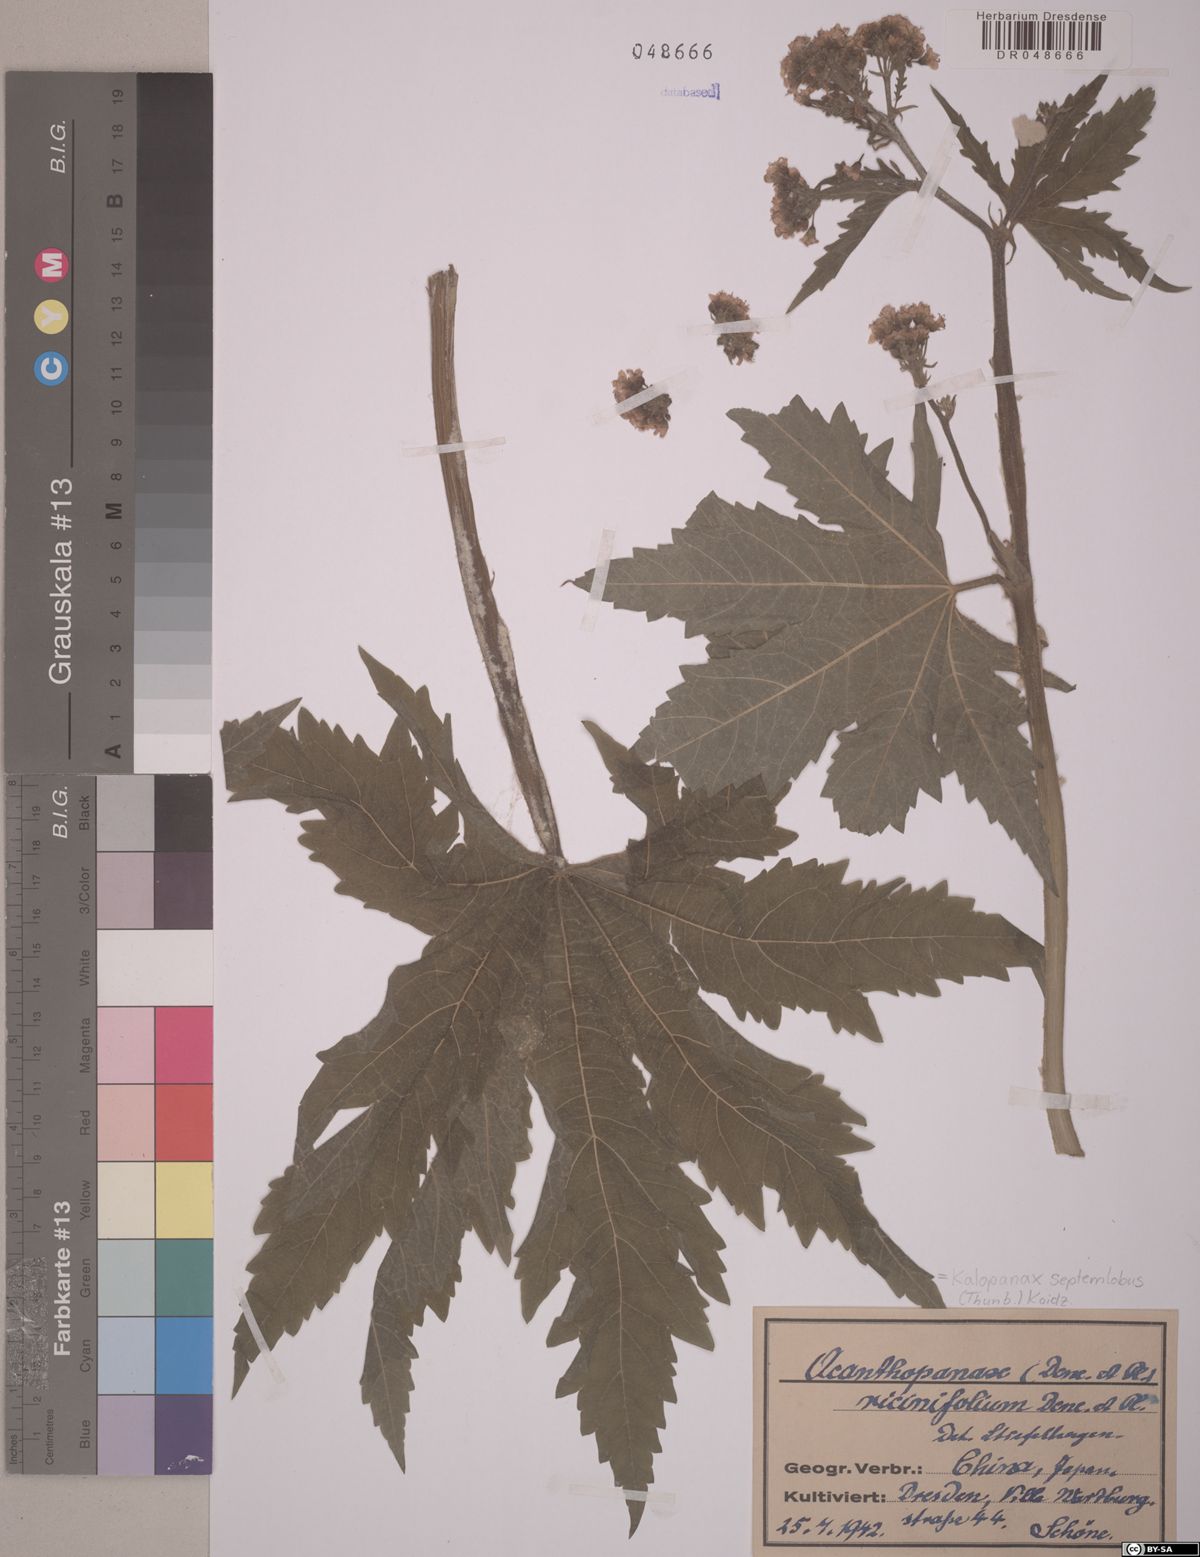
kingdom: Plantae
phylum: Tracheophyta
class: Magnoliopsida
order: Apiales
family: Araliaceae
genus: Kalopanax
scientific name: Kalopanax septemlobus
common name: Castor aralia
